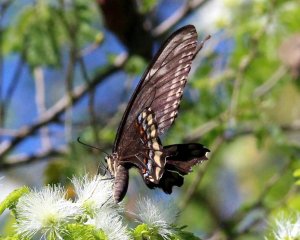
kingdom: Animalia
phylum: Arthropoda
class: Insecta
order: Lepidoptera
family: Papilionidae
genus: Papilio
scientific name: Papilio ornythion
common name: Ornythion Swallowtail
